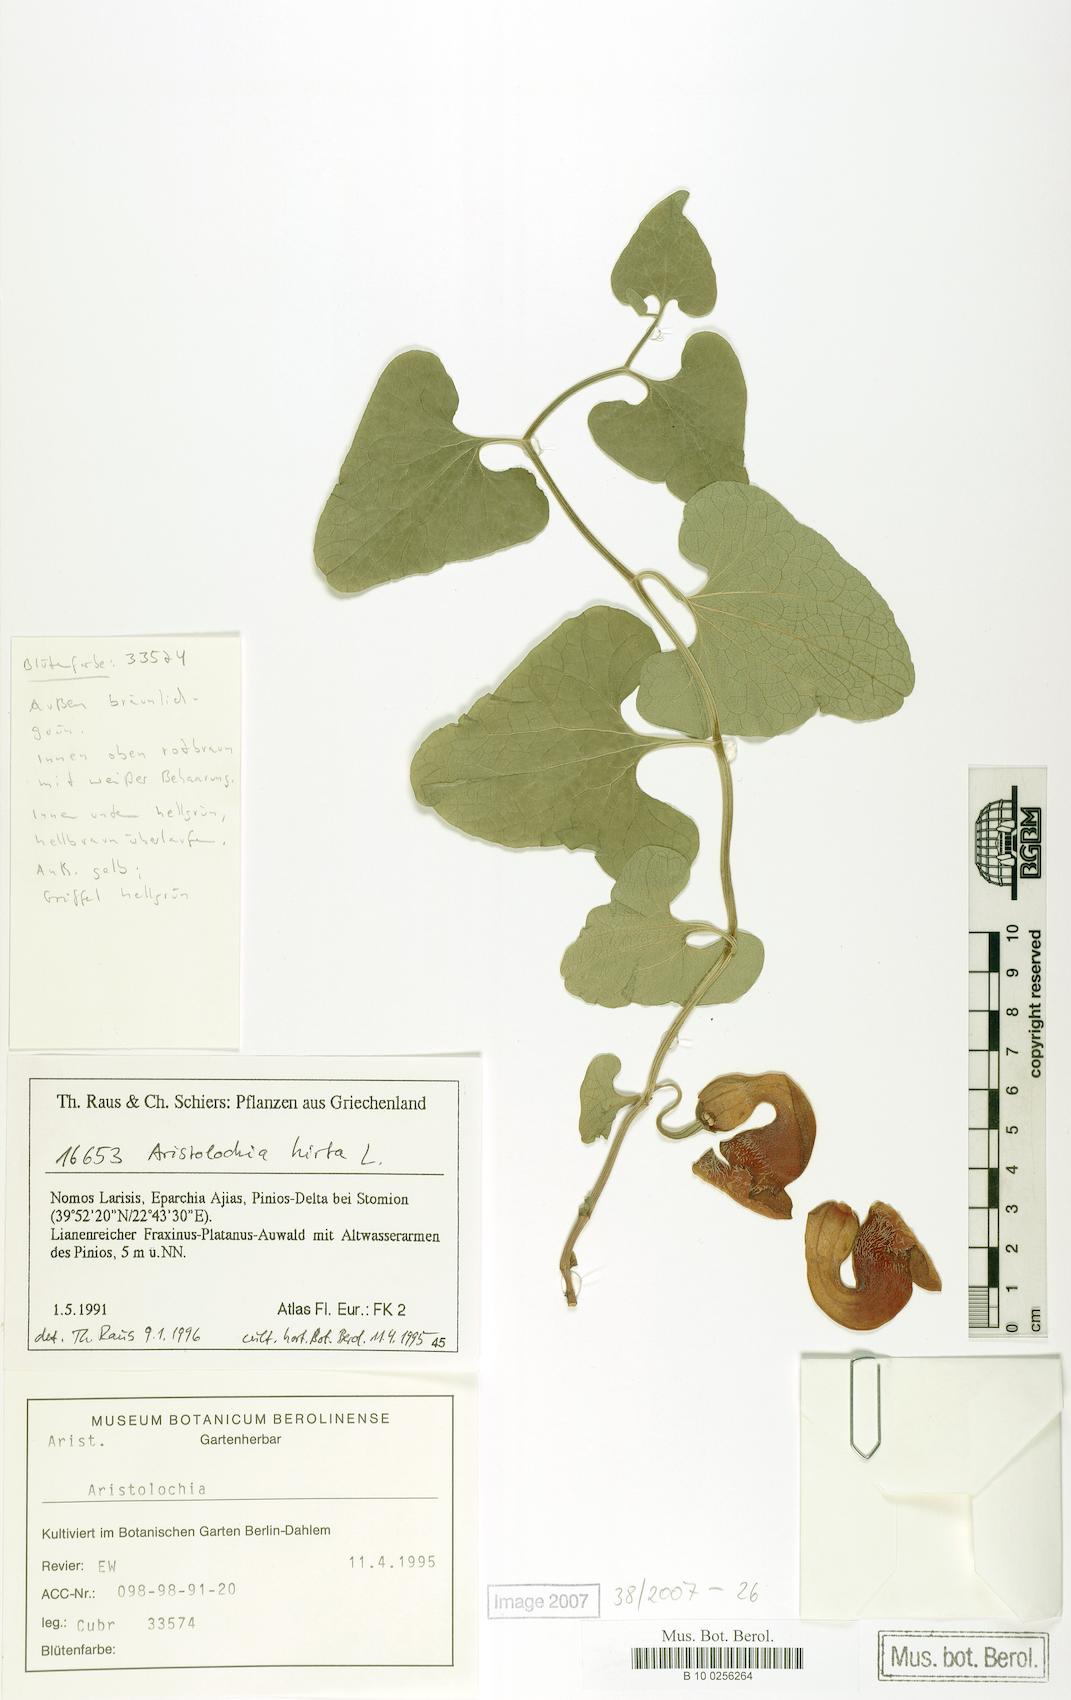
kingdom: Plantae
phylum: Tracheophyta
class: Magnoliopsida
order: Piperales
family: Aristolochiaceae
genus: Aristolochia
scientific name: Aristolochia hirta
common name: Breckland birthwort
